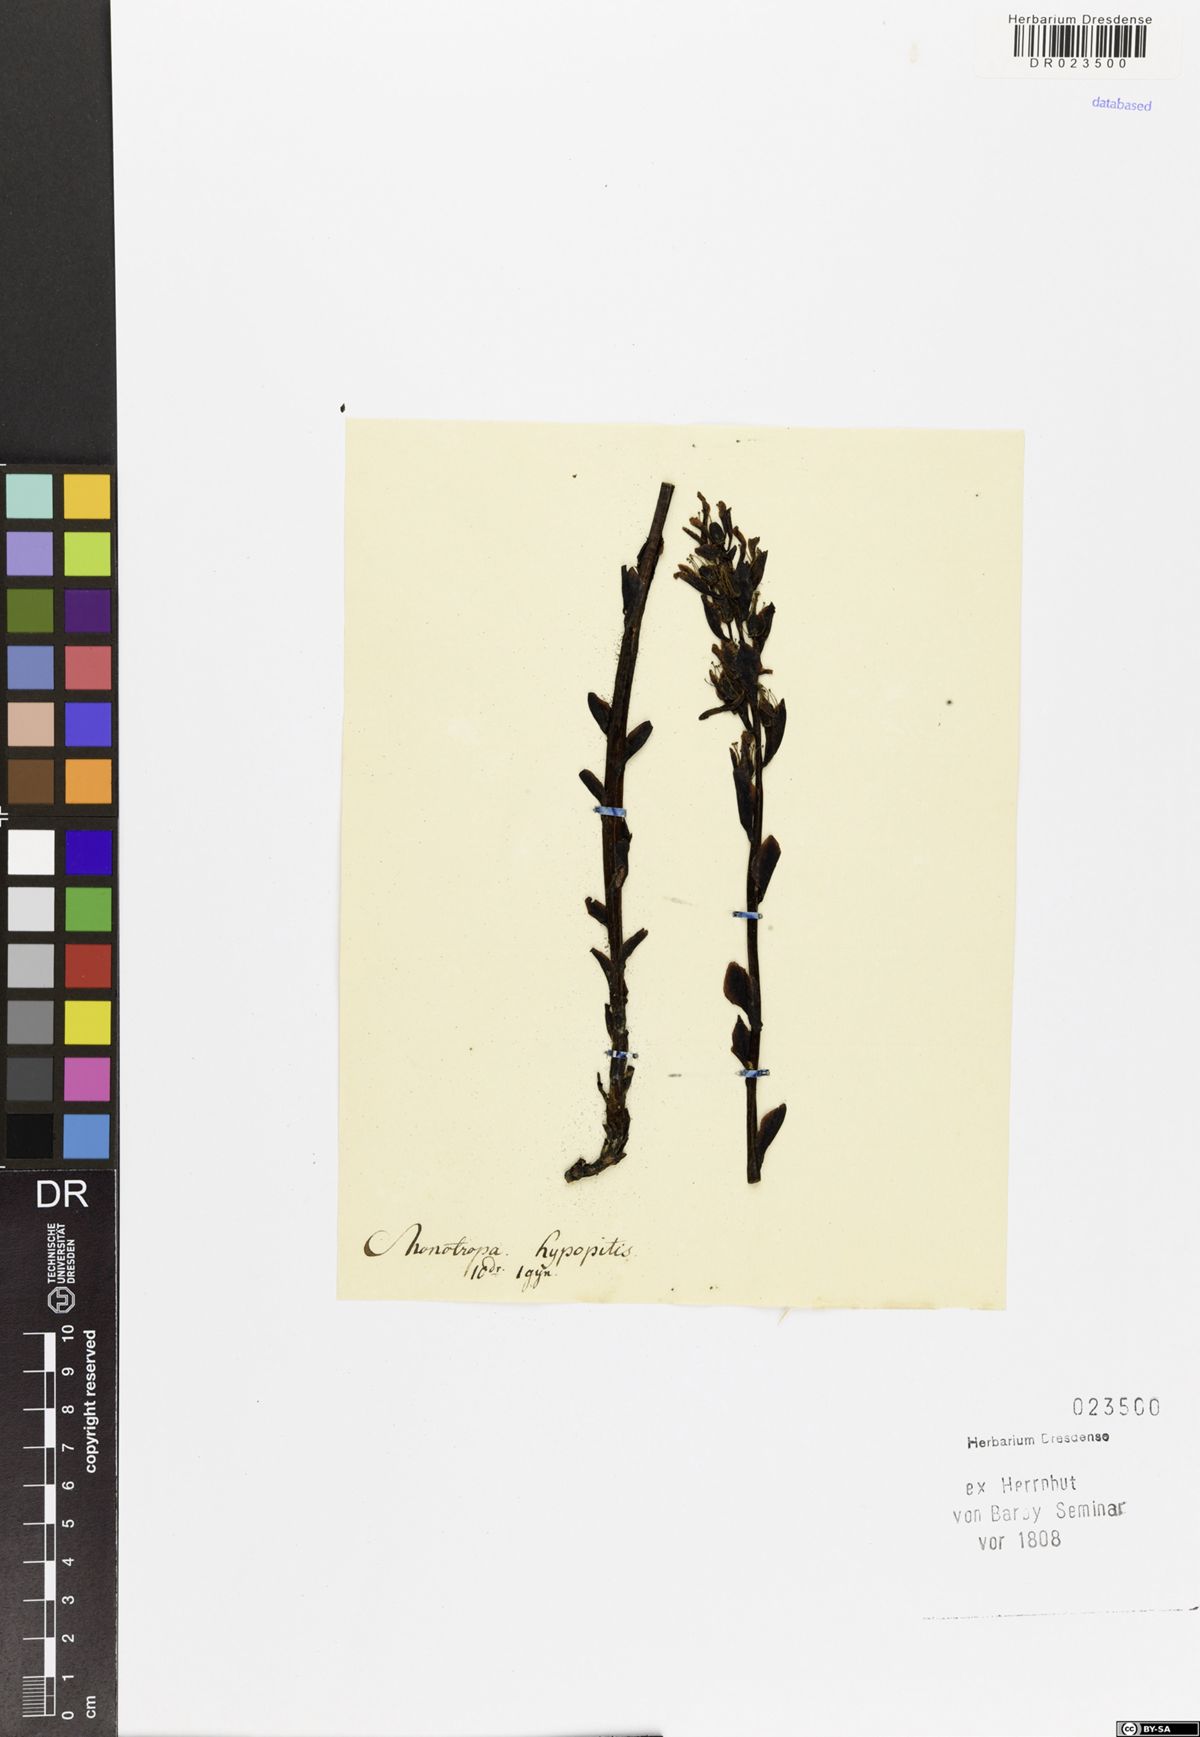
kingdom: Plantae
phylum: Tracheophyta
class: Magnoliopsida
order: Ericales
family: Ericaceae
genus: Hypopitys
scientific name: Hypopitys monotropa
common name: Yellow bird's-nest
